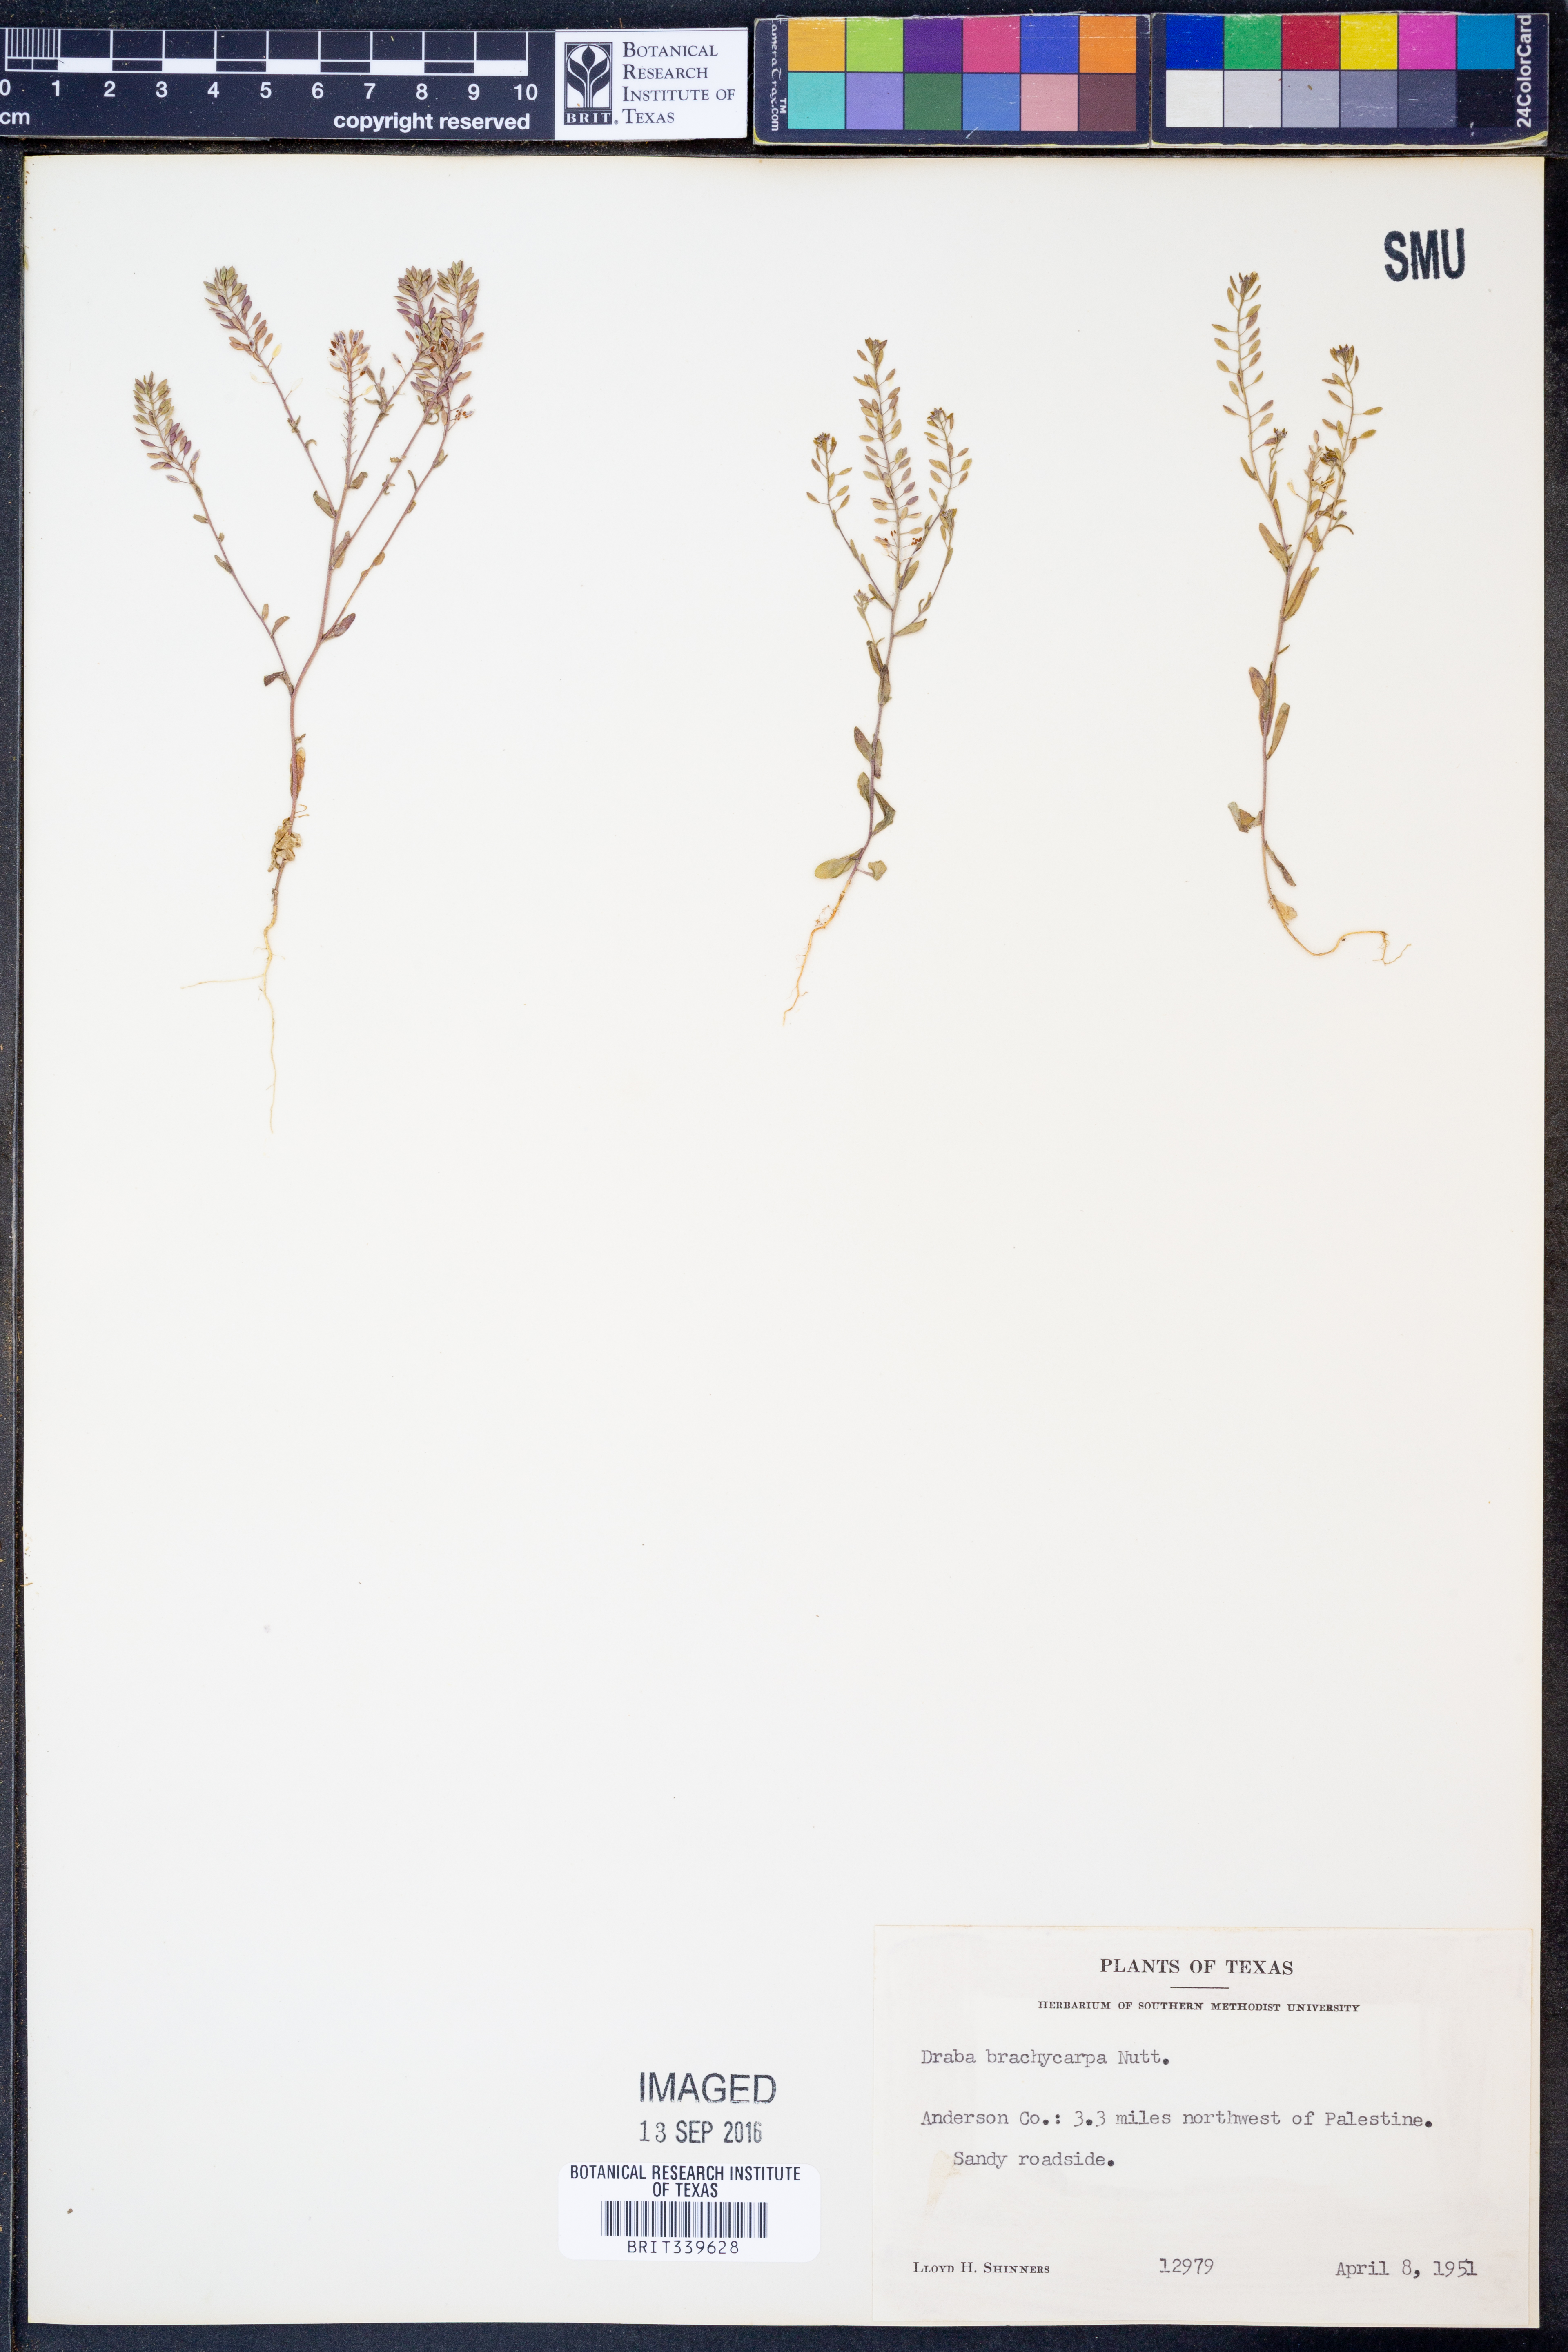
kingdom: Plantae
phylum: Tracheophyta
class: Magnoliopsida
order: Brassicales
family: Brassicaceae
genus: Abdra
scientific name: Abdra brachycarpa
